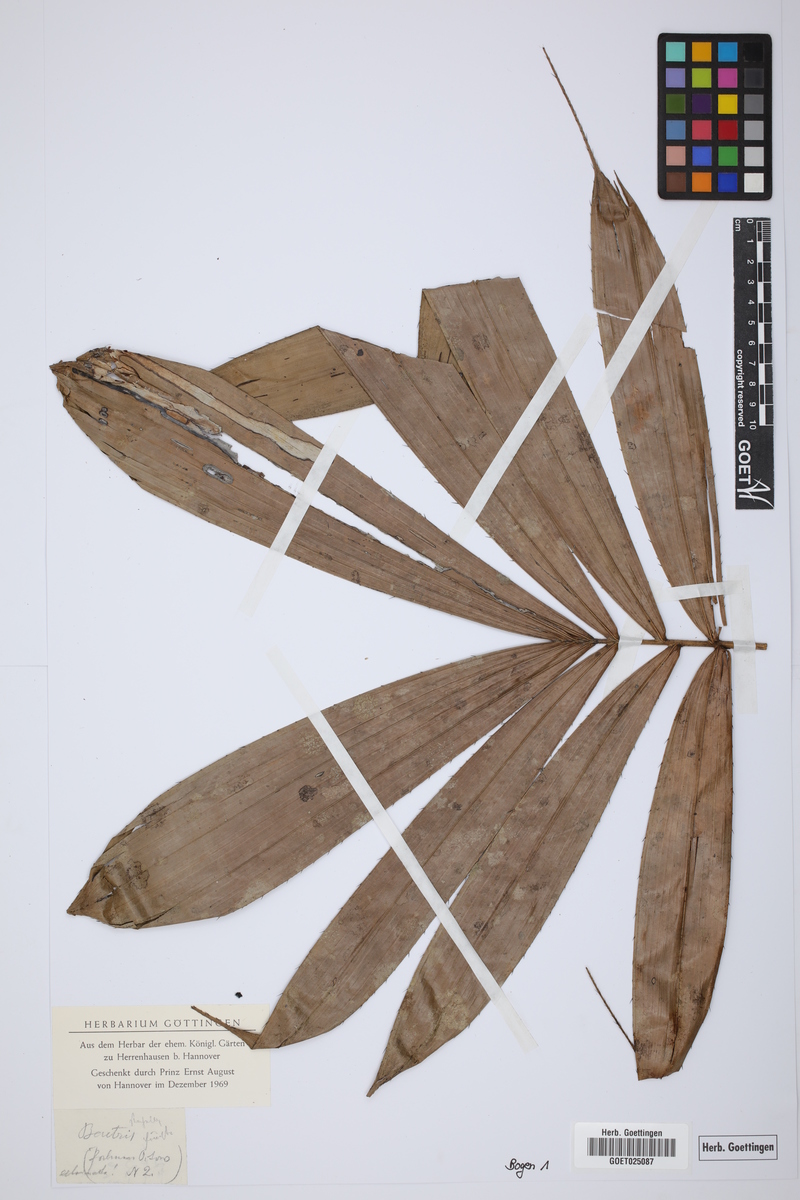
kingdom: Plantae
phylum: Tracheophyta
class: Liliopsida
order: Arecales
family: Arecaceae
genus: Bactris
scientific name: Bactris
